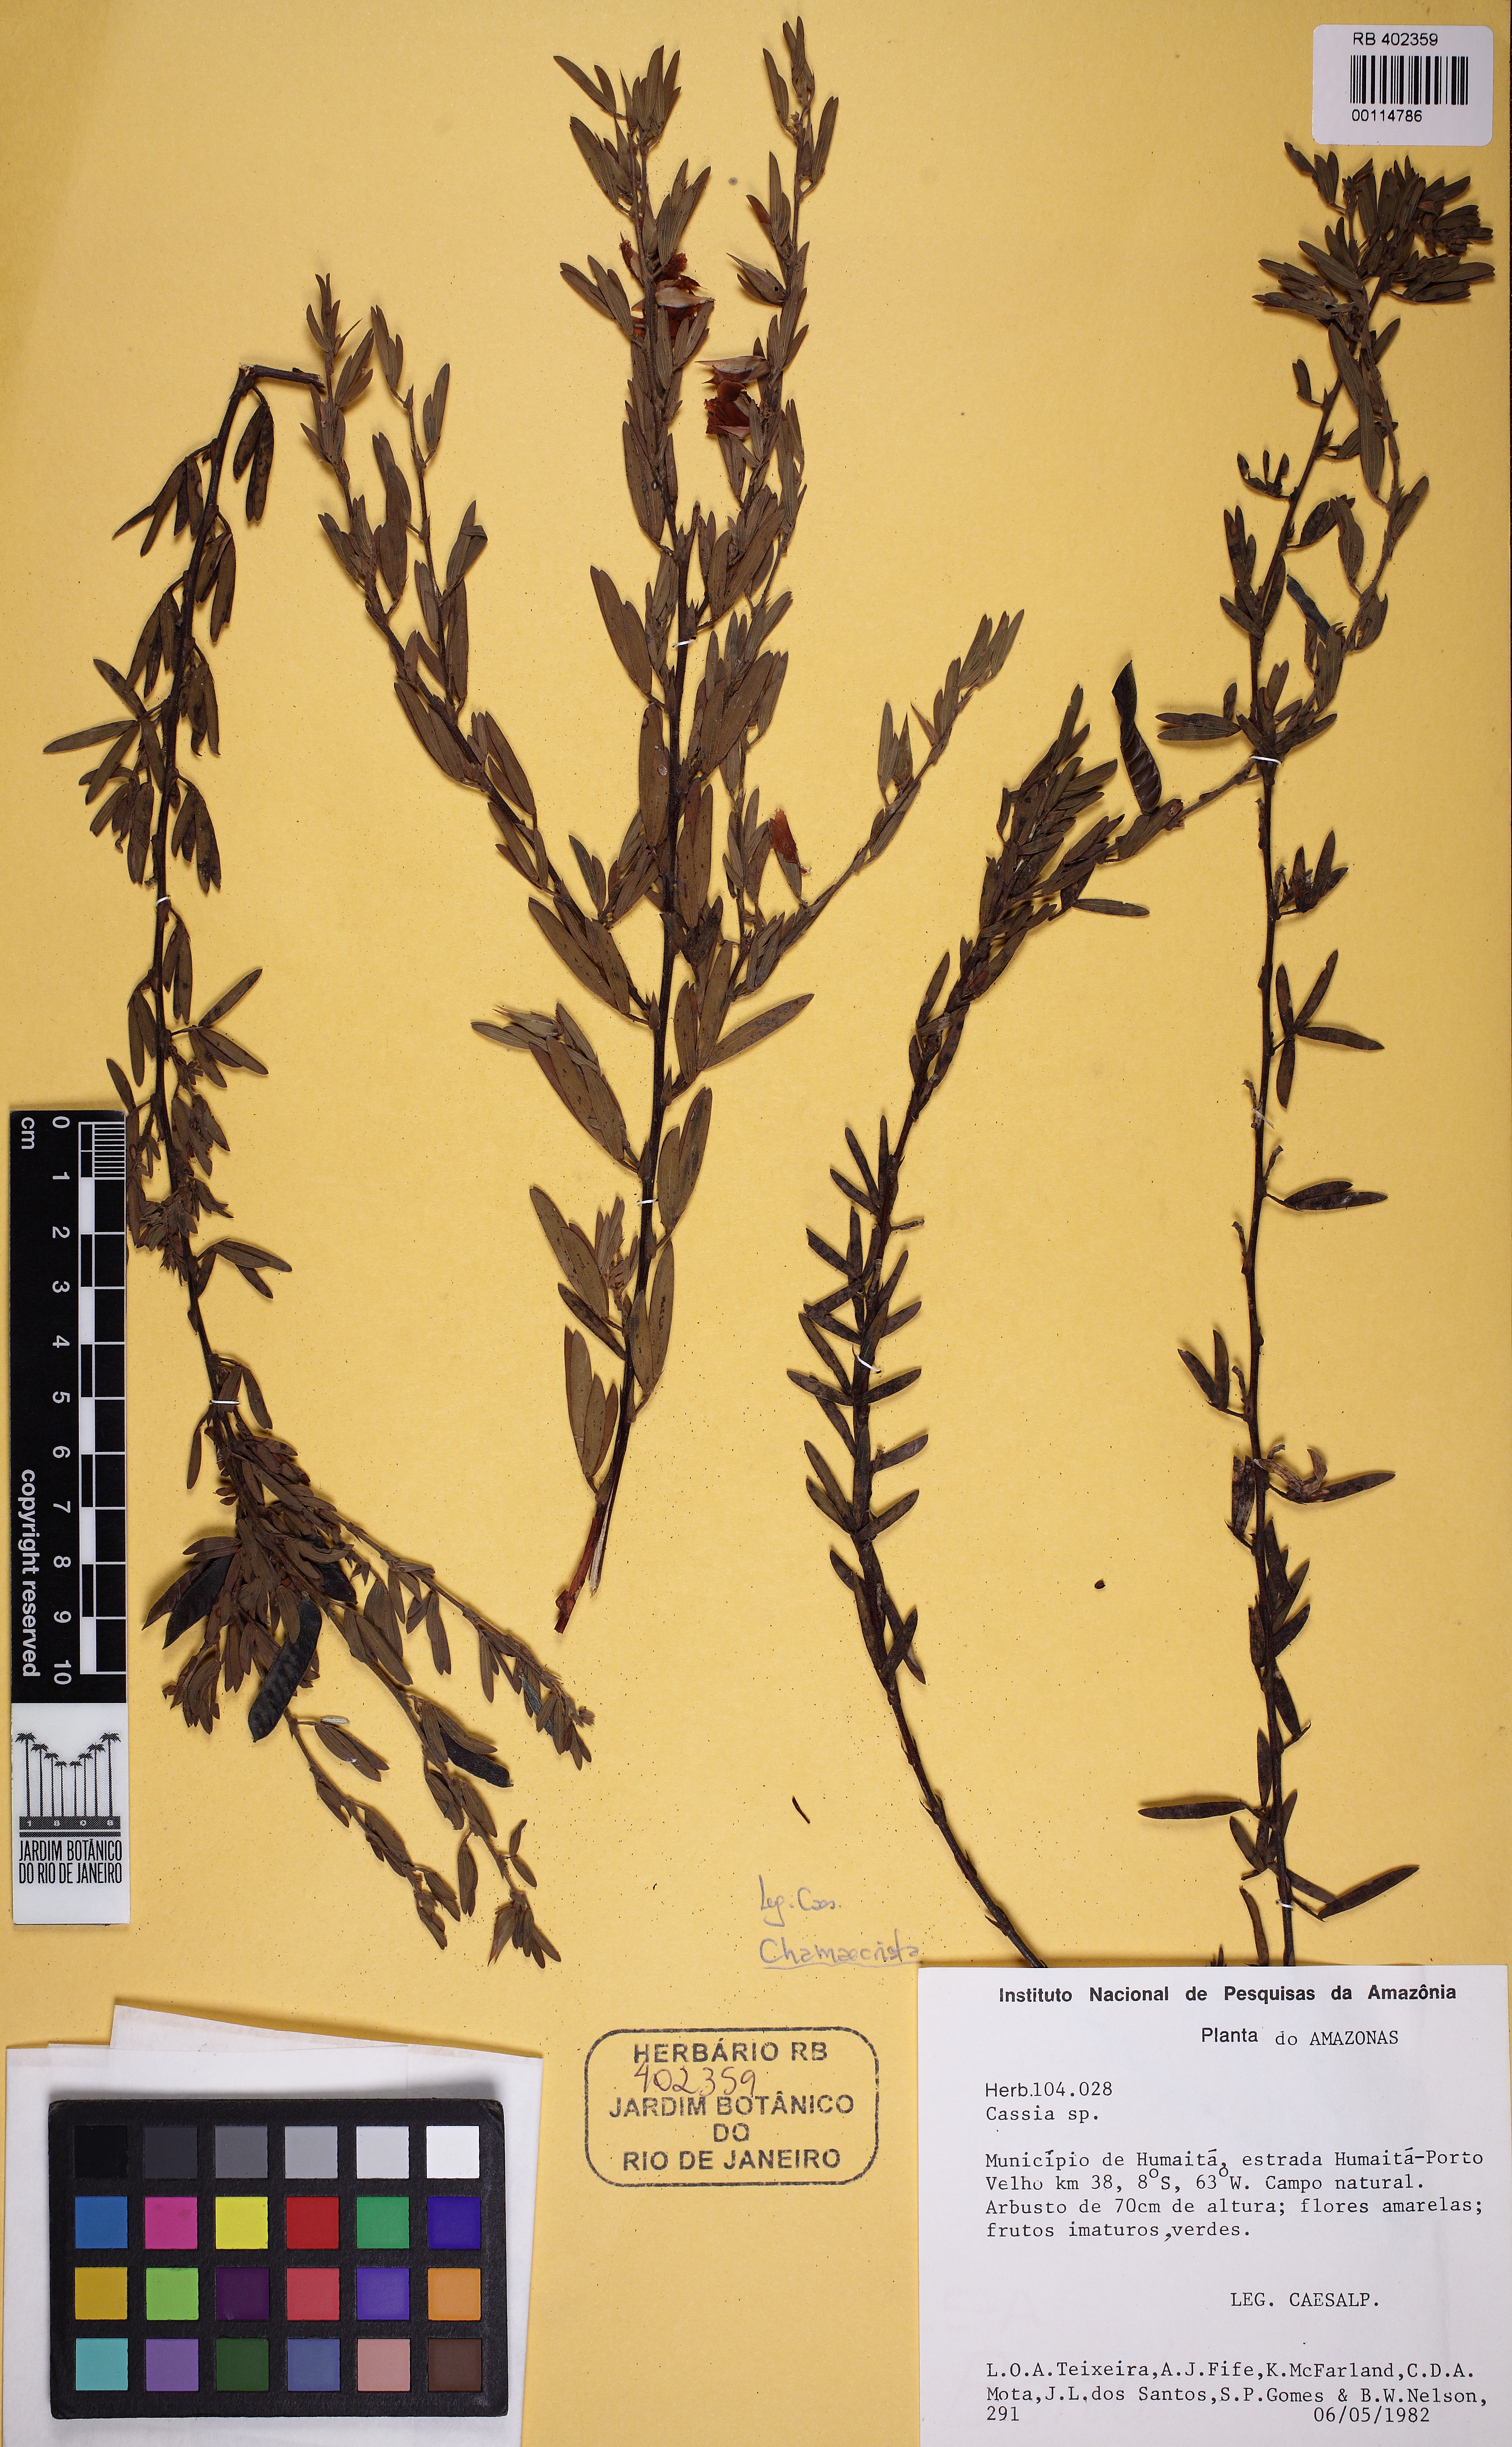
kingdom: Plantae
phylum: Tracheophyta
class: Magnoliopsida
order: Fabales
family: Fabaceae
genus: Chamaecrista
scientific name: Chamaecrista
